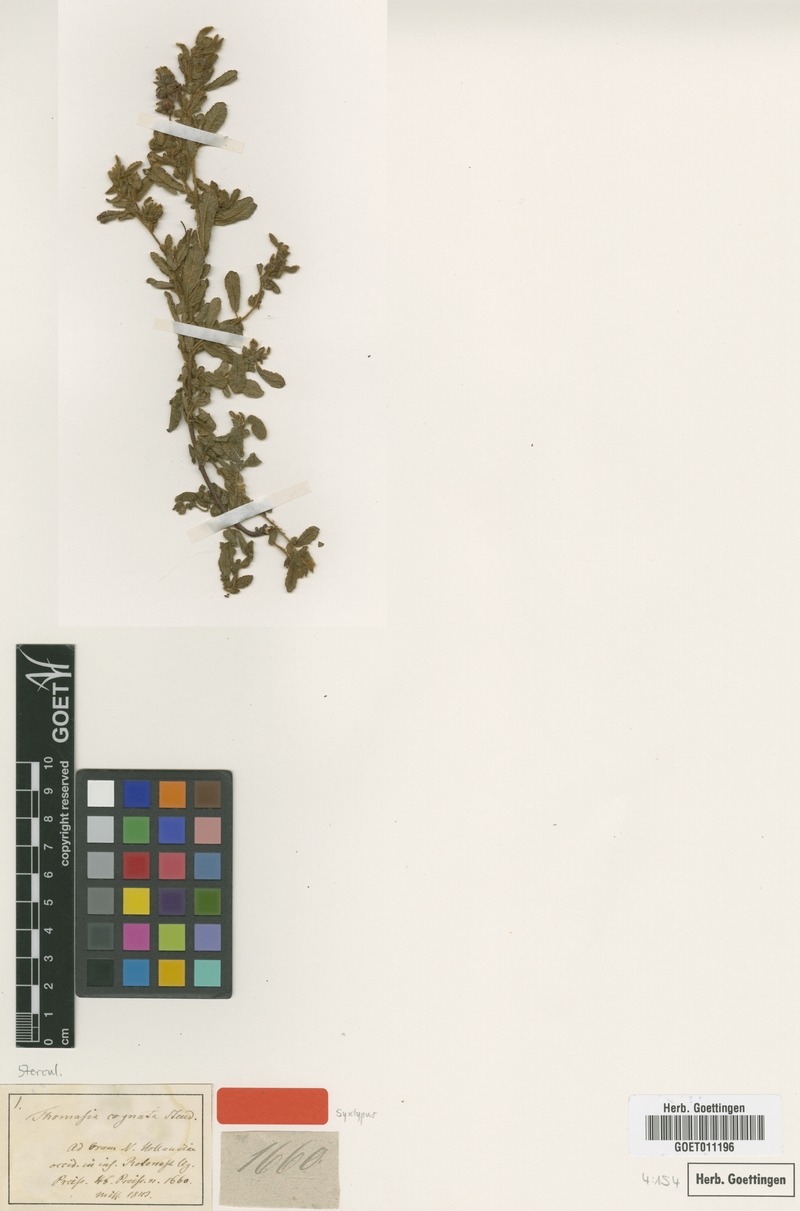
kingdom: Plantae
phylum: Tracheophyta
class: Magnoliopsida
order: Malvales
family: Malvaceae
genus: Thomasia
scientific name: Thomasia cognata
